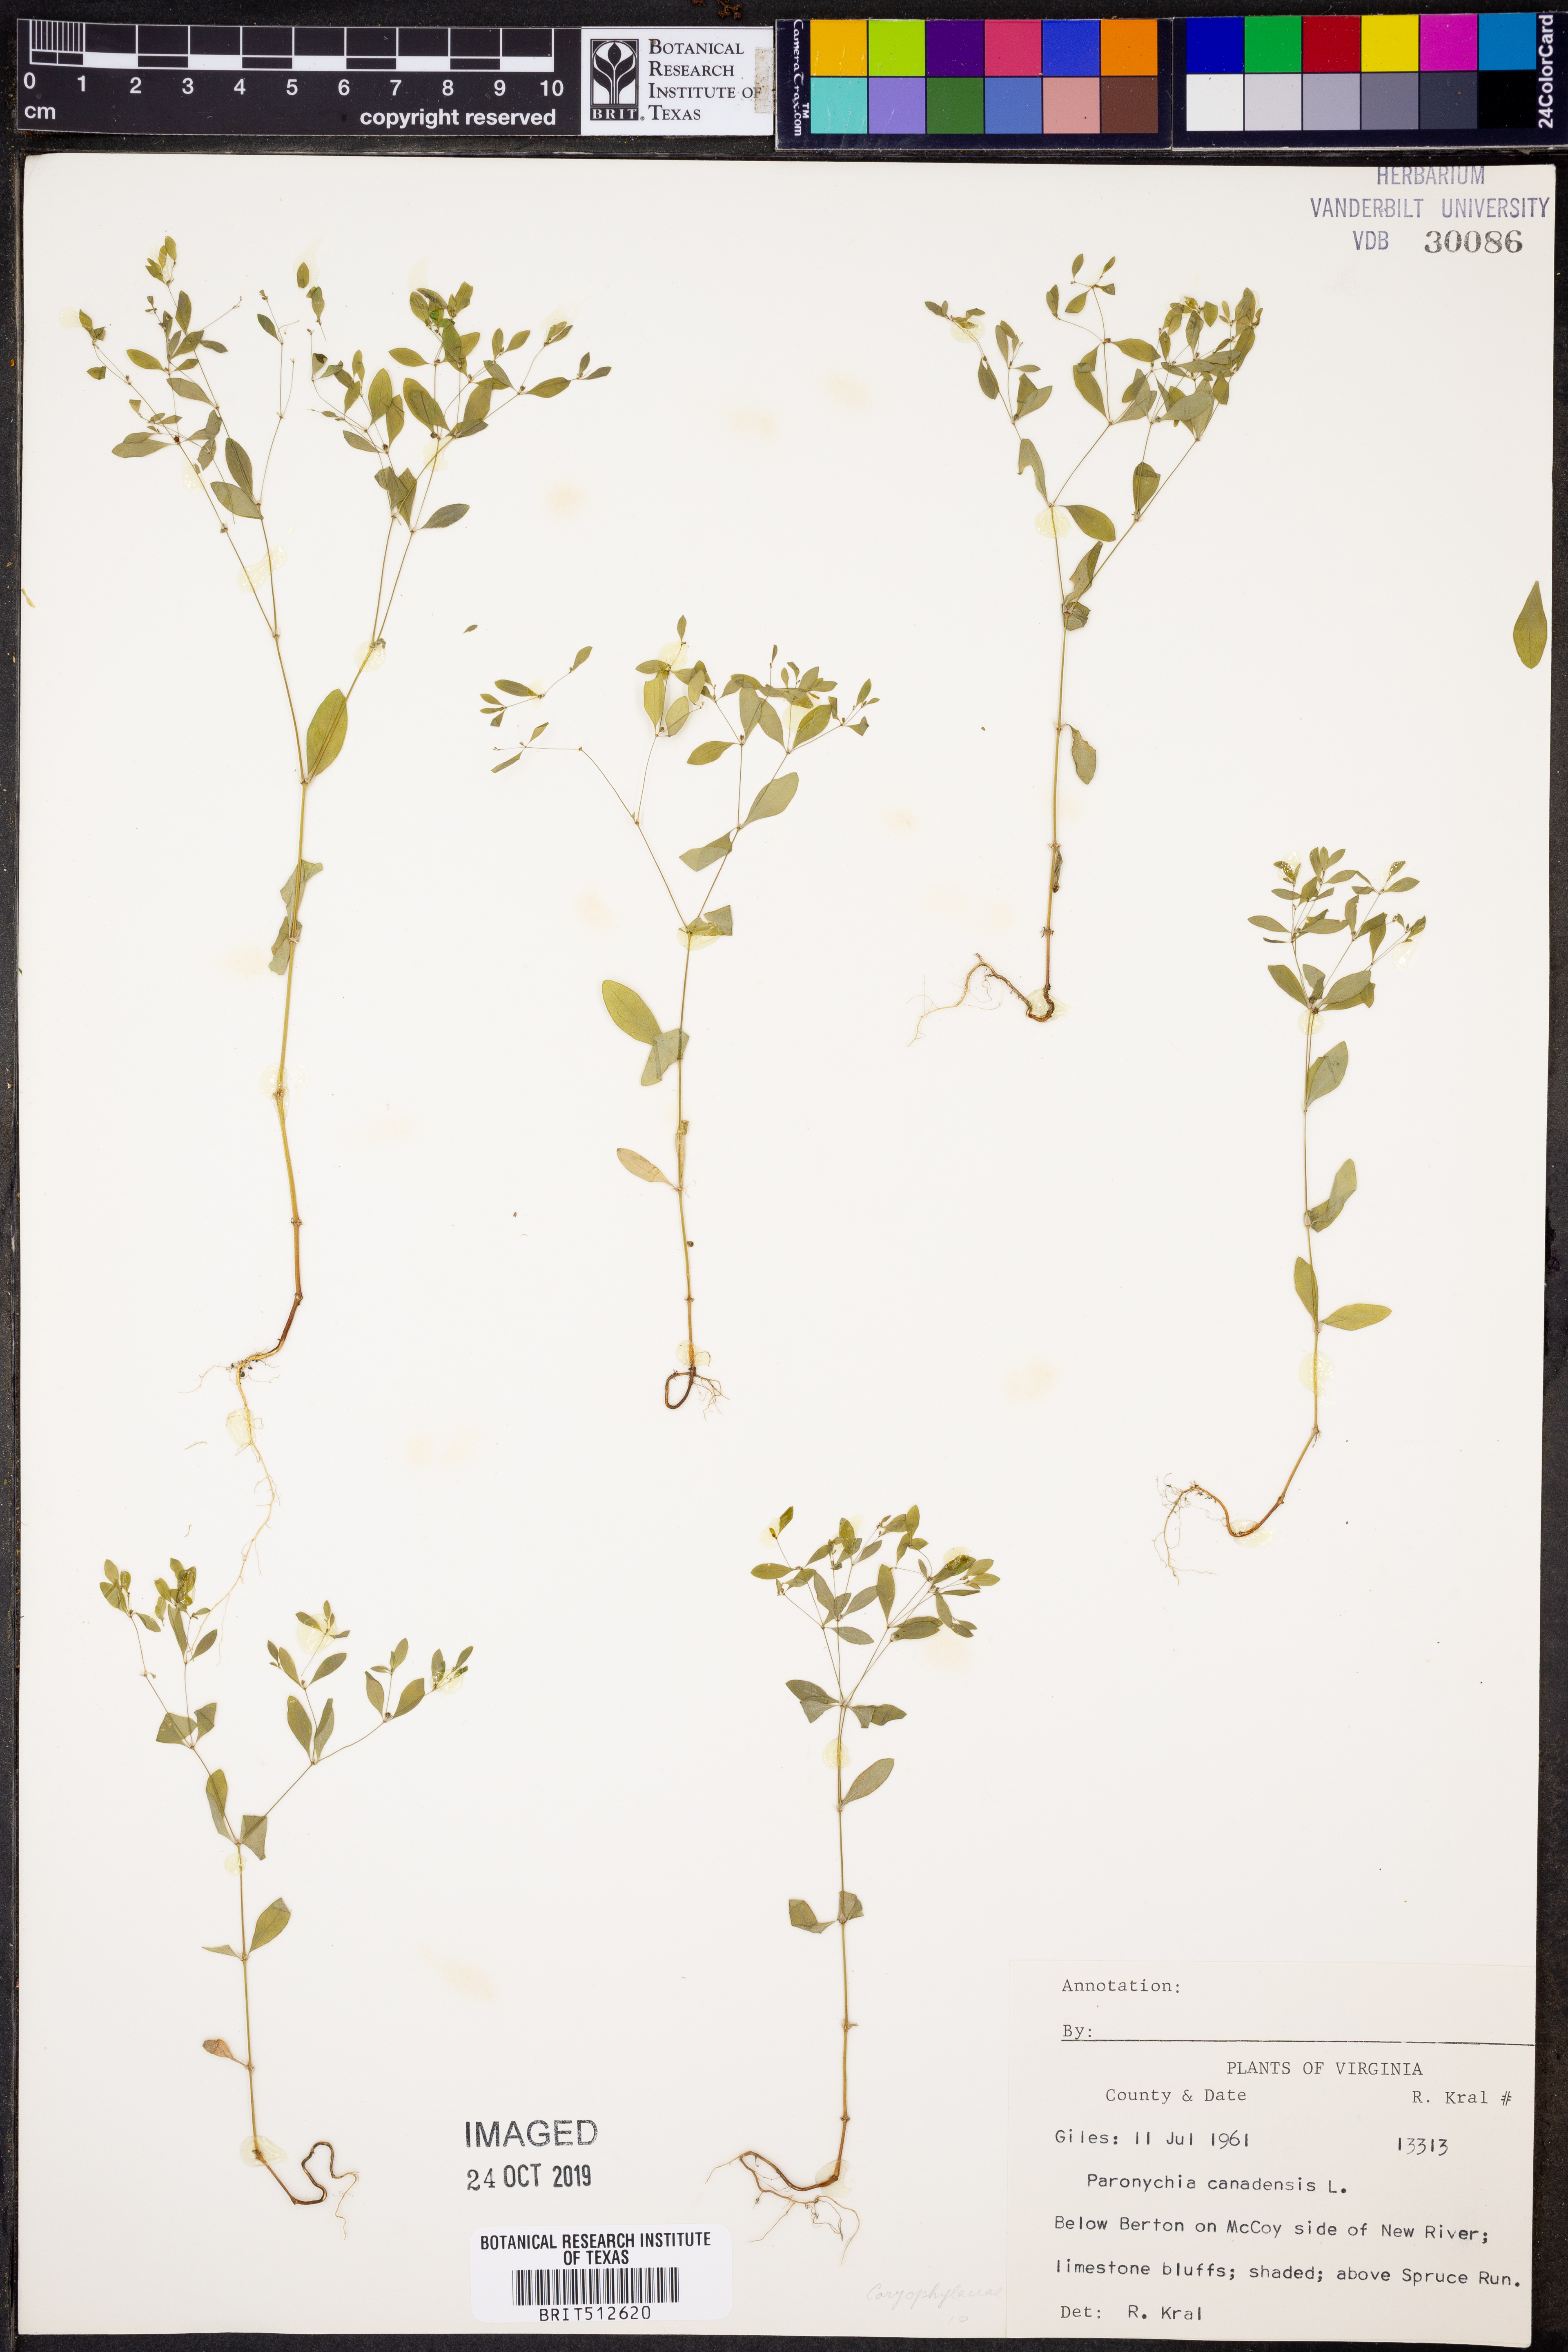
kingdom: Plantae
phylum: Tracheophyta
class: Magnoliopsida
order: Caryophyllales
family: Caryophyllaceae
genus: Paronychia
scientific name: Paronychia canadensis
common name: Canada forked nailwort
